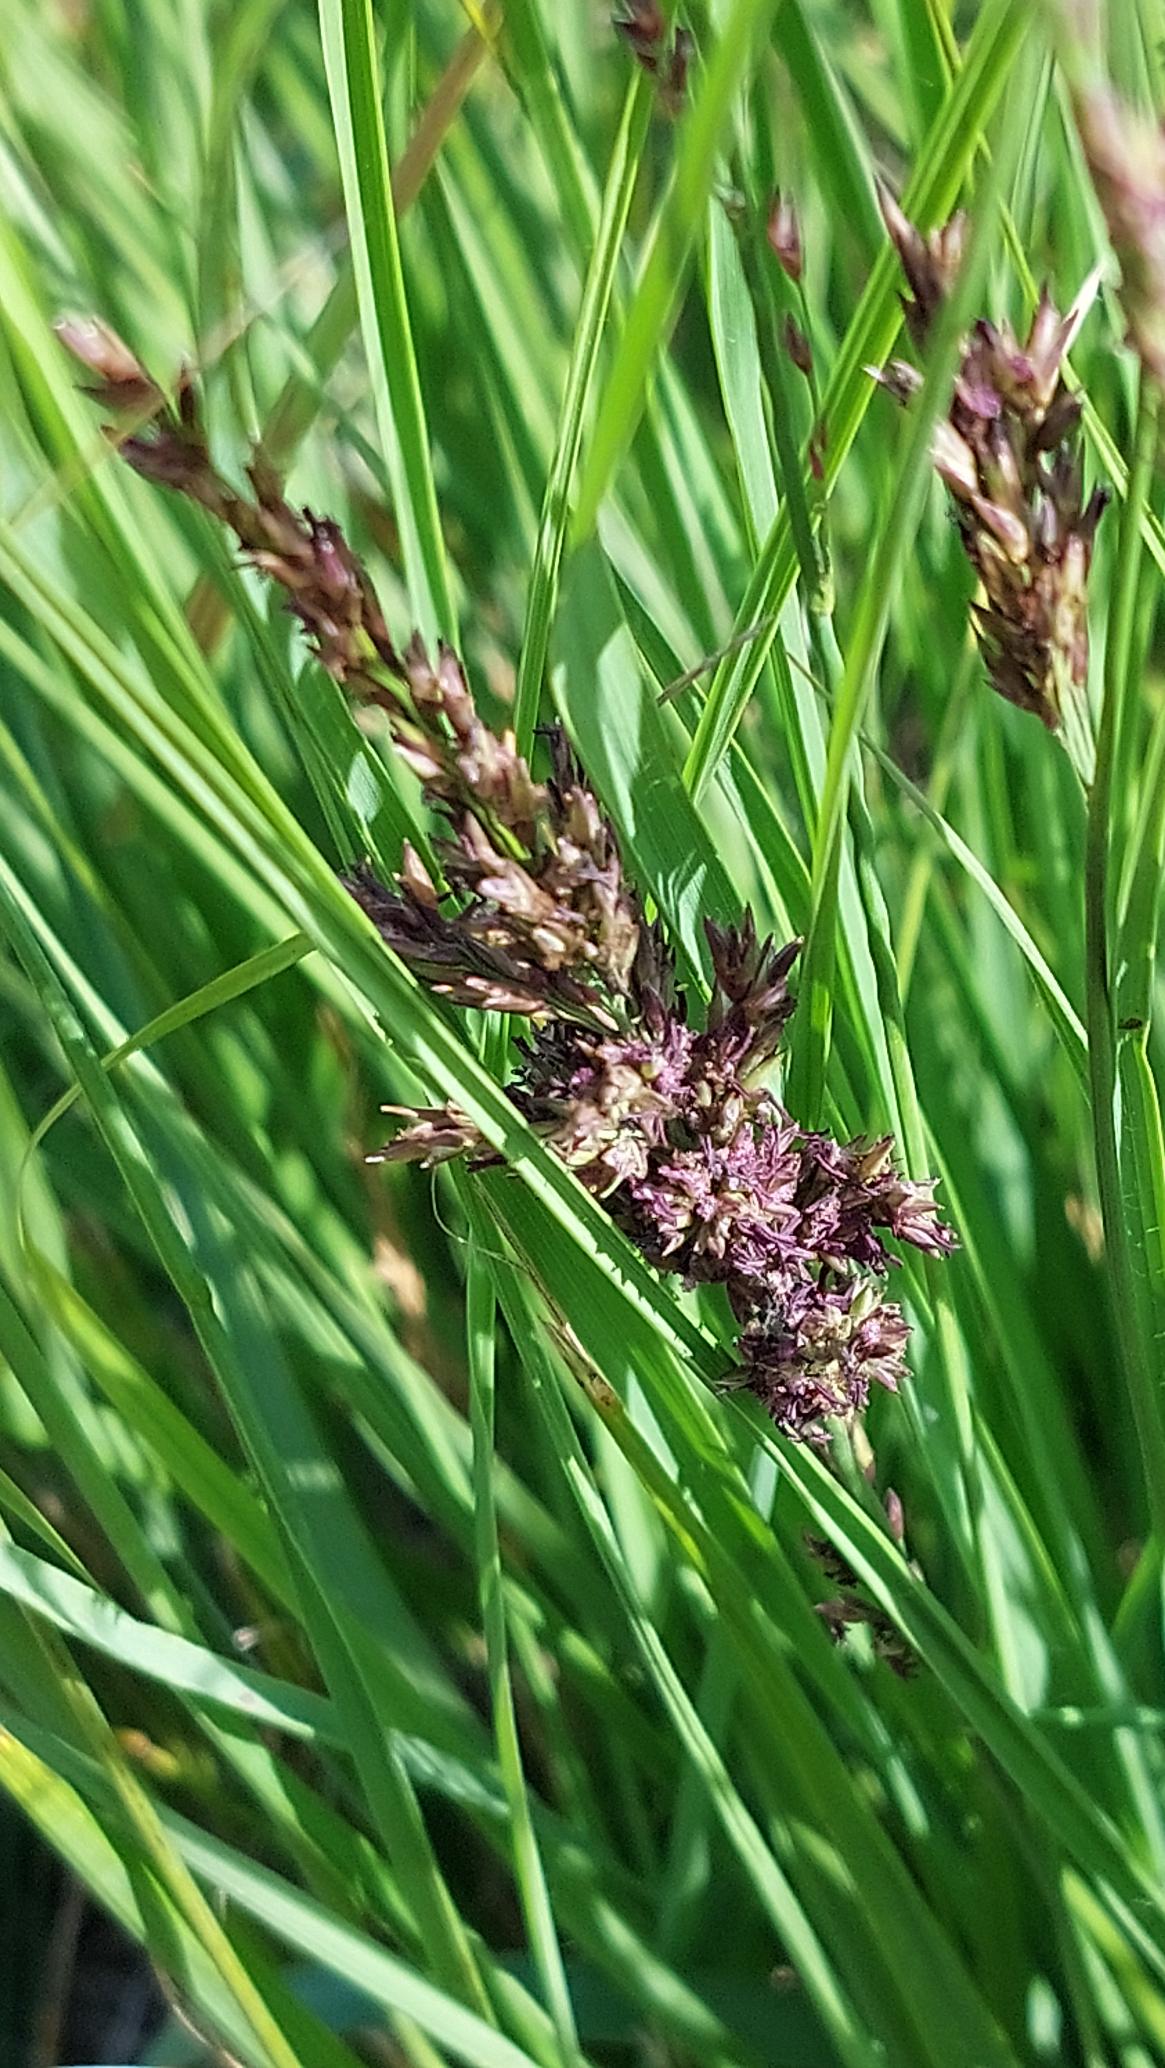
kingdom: Plantae
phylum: Tracheophyta
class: Liliopsida
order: Poales
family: Poaceae
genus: Molinia
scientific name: Molinia caerulea
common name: Blåtop
